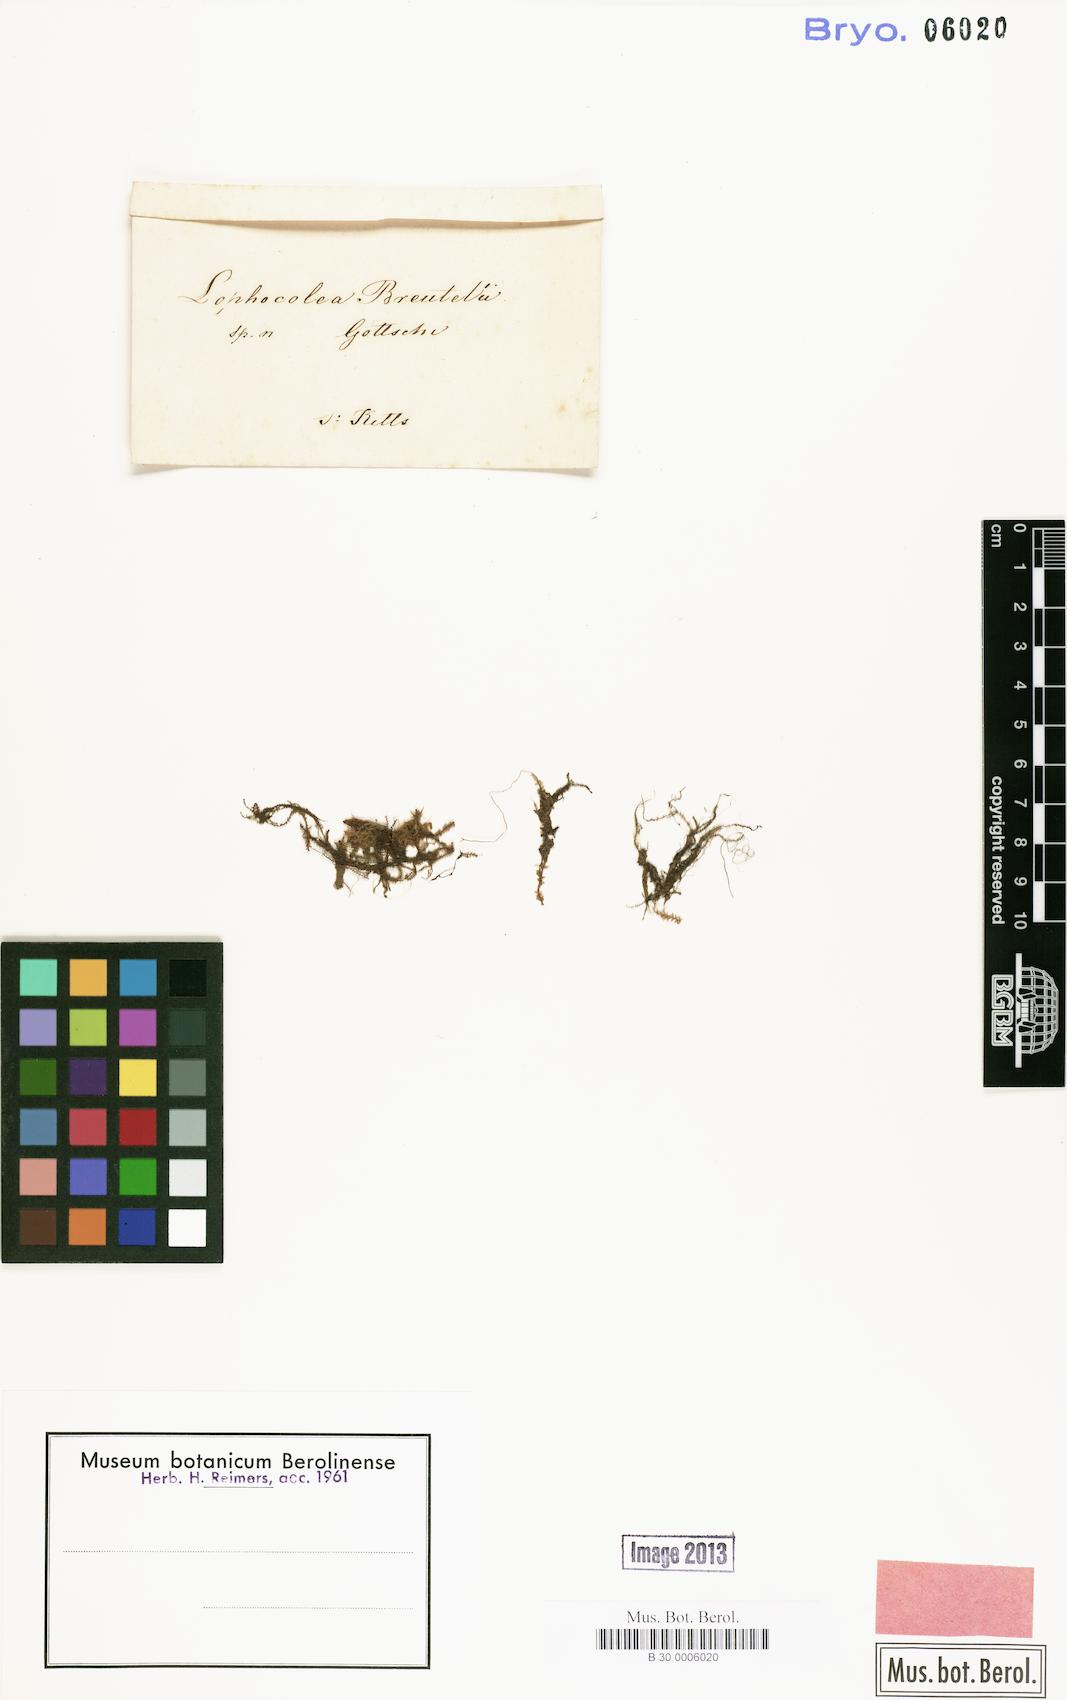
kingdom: Plantae
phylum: Marchantiophyta
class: Jungermanniopsida
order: Jungermanniales
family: Lophocoleaceae
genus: Leptoscyphus
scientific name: Leptoscyphus trapezoides
